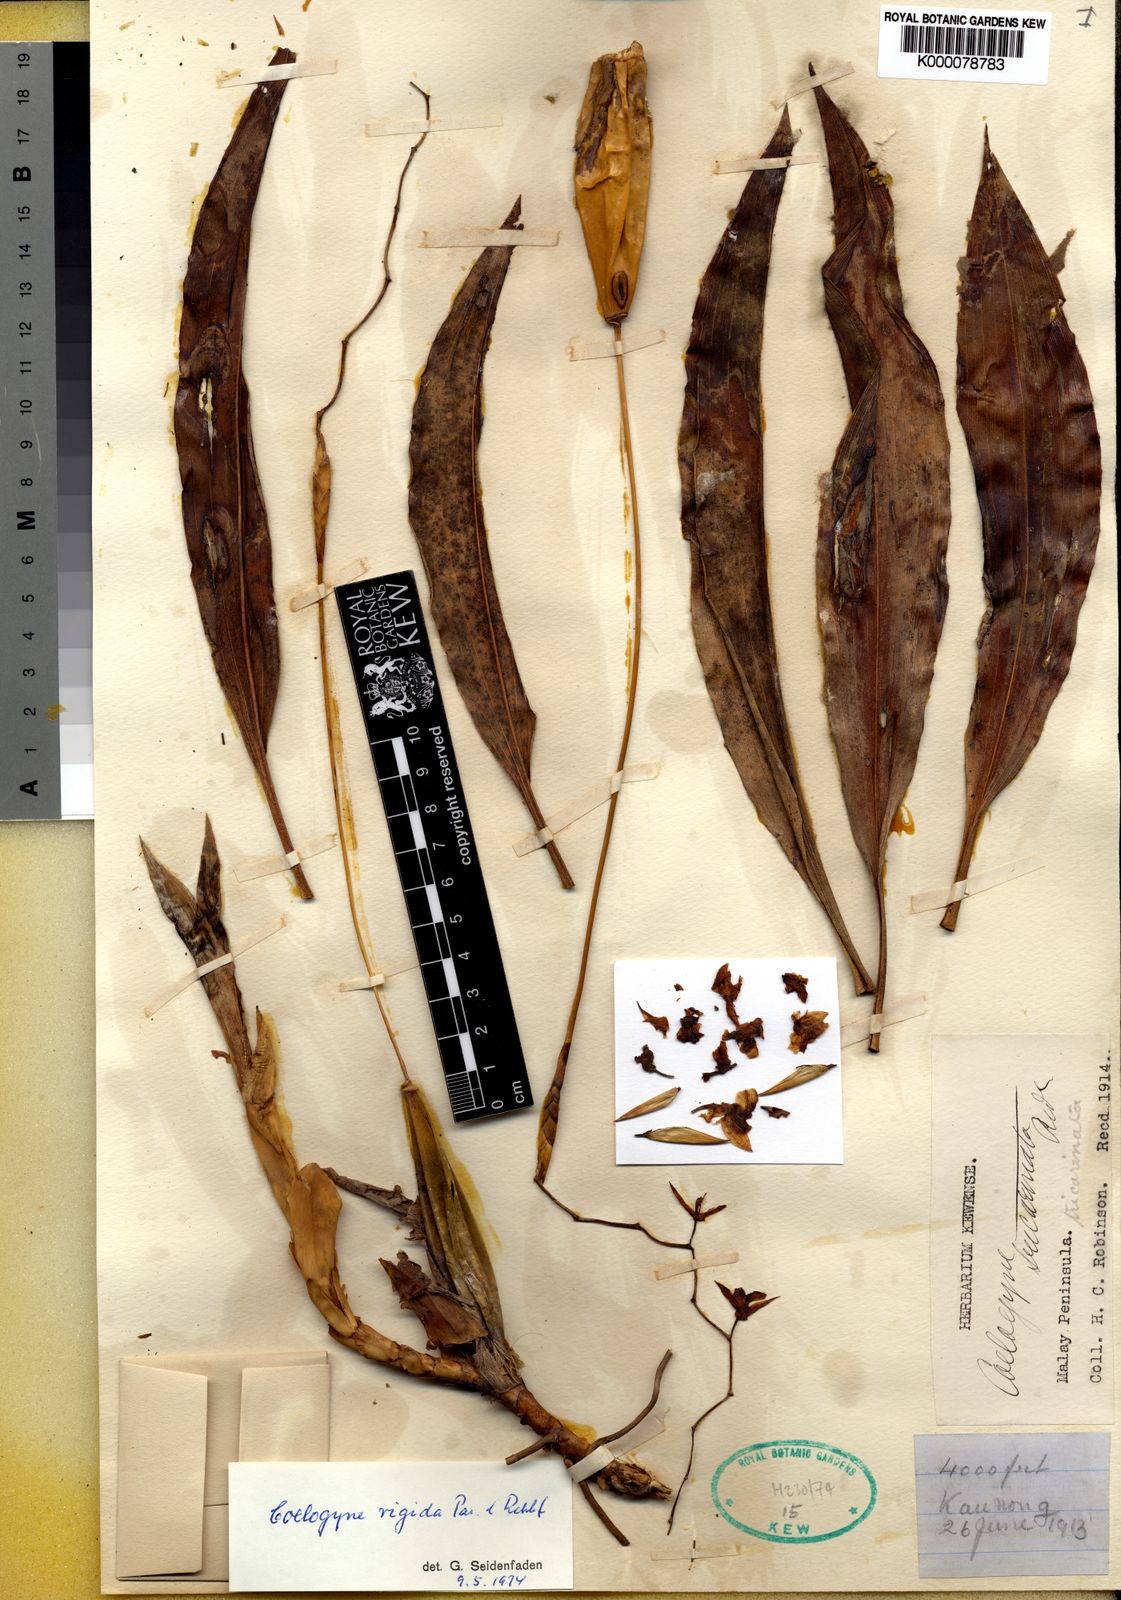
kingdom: Plantae
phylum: Tracheophyta
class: Liliopsida
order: Asparagales
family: Orchidaceae
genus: Coelogyne
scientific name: Coelogyne rigida
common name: Rigid coelogyne
